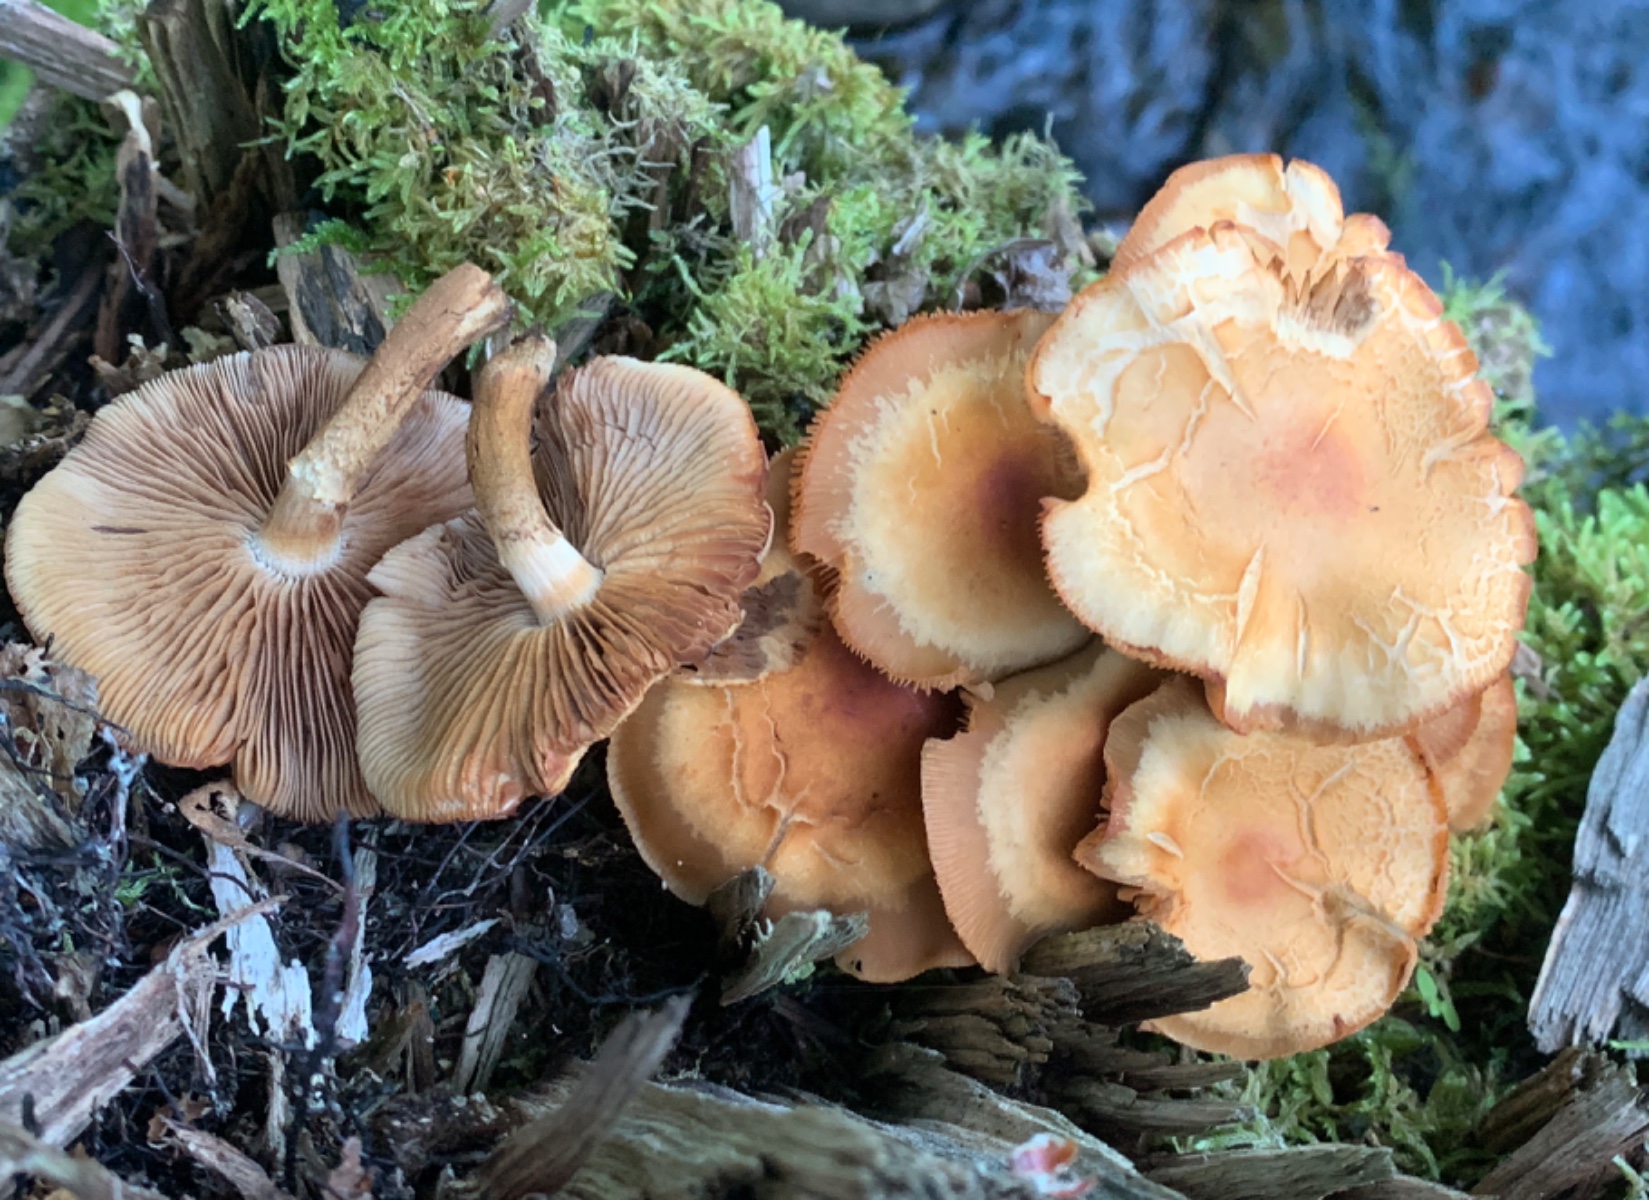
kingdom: Fungi
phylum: Basidiomycota
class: Agaricomycetes
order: Agaricales
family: Strophariaceae
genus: Kuehneromyces
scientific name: Kuehneromyces mutabilis
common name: foranderlig skælhat
